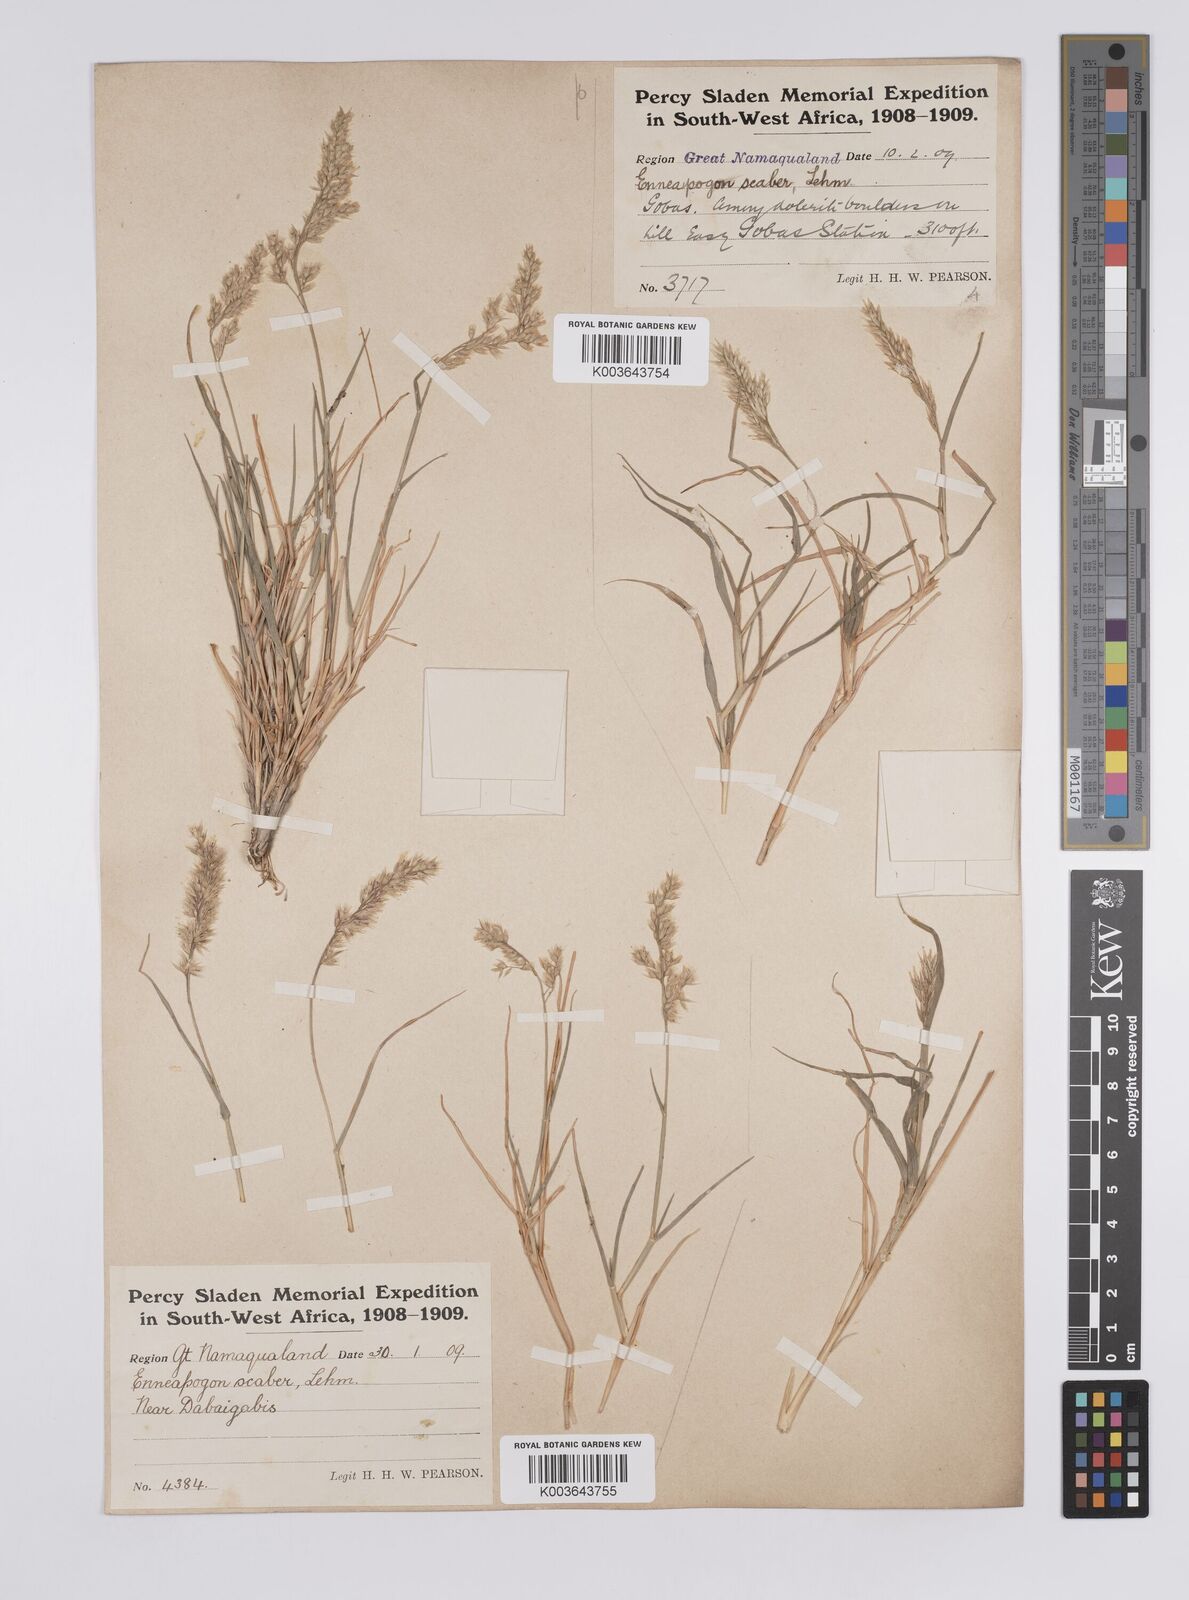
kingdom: Plantae
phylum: Tracheophyta
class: Liliopsida
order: Poales
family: Poaceae
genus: Enneapogon
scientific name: Enneapogon scaber
